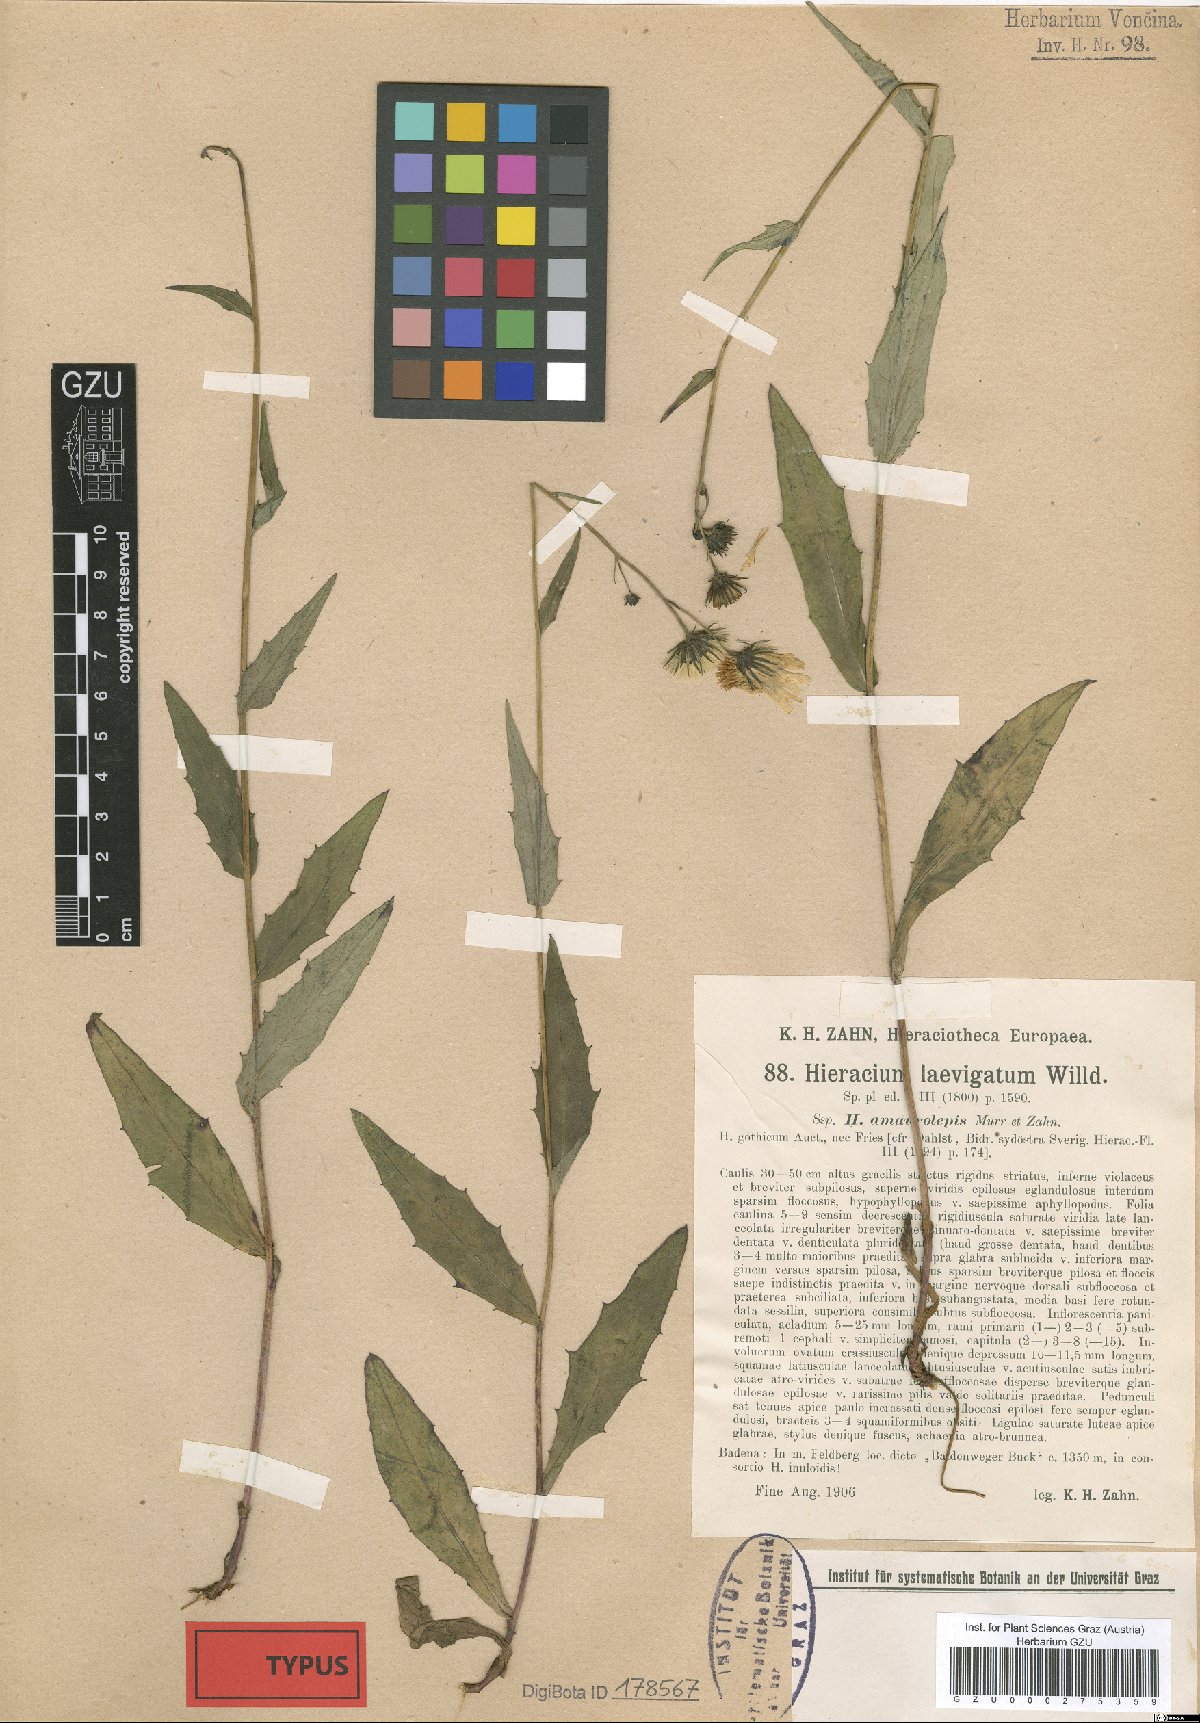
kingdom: Plantae
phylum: Tracheophyta
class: Magnoliopsida
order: Asterales
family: Asteraceae
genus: Hieracium
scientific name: Hieracium laevigatum
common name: Smooth hawkweed
